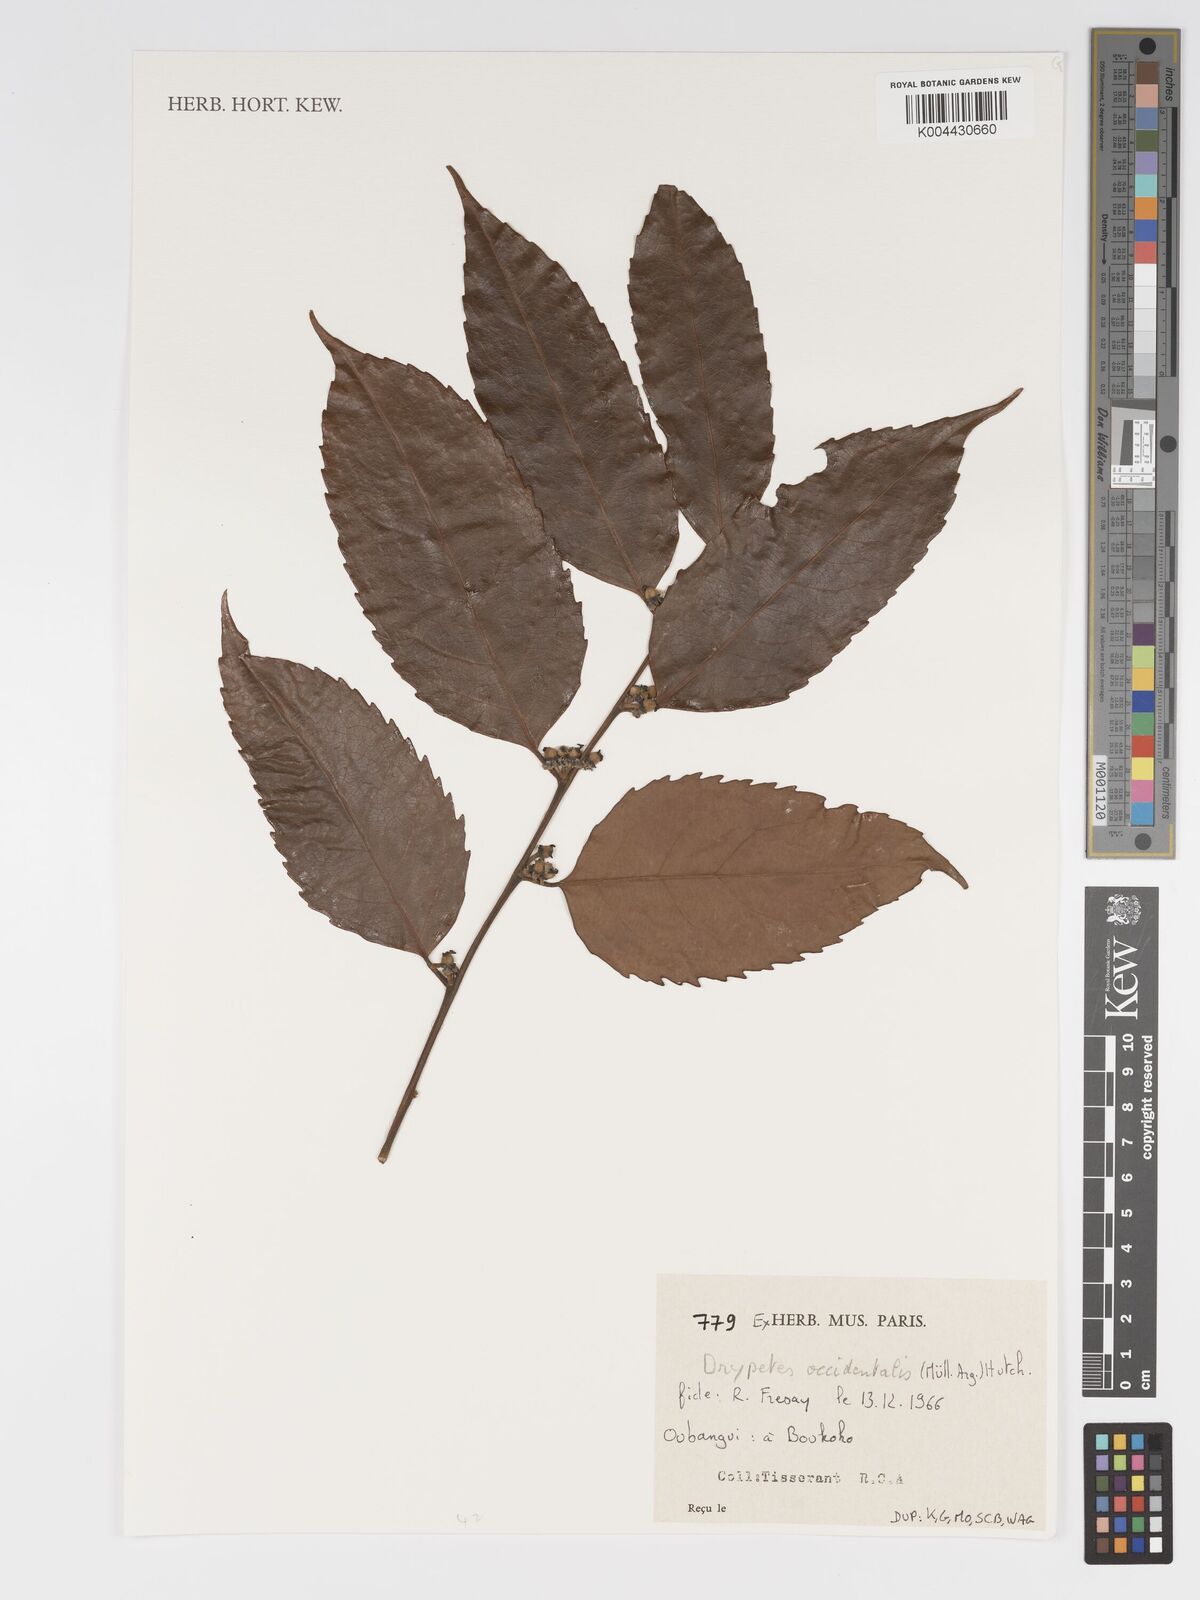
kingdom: Plantae
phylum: Tracheophyta
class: Magnoliopsida
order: Malpighiales
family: Putranjivaceae
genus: Drypetes
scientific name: Drypetes occidentalis
